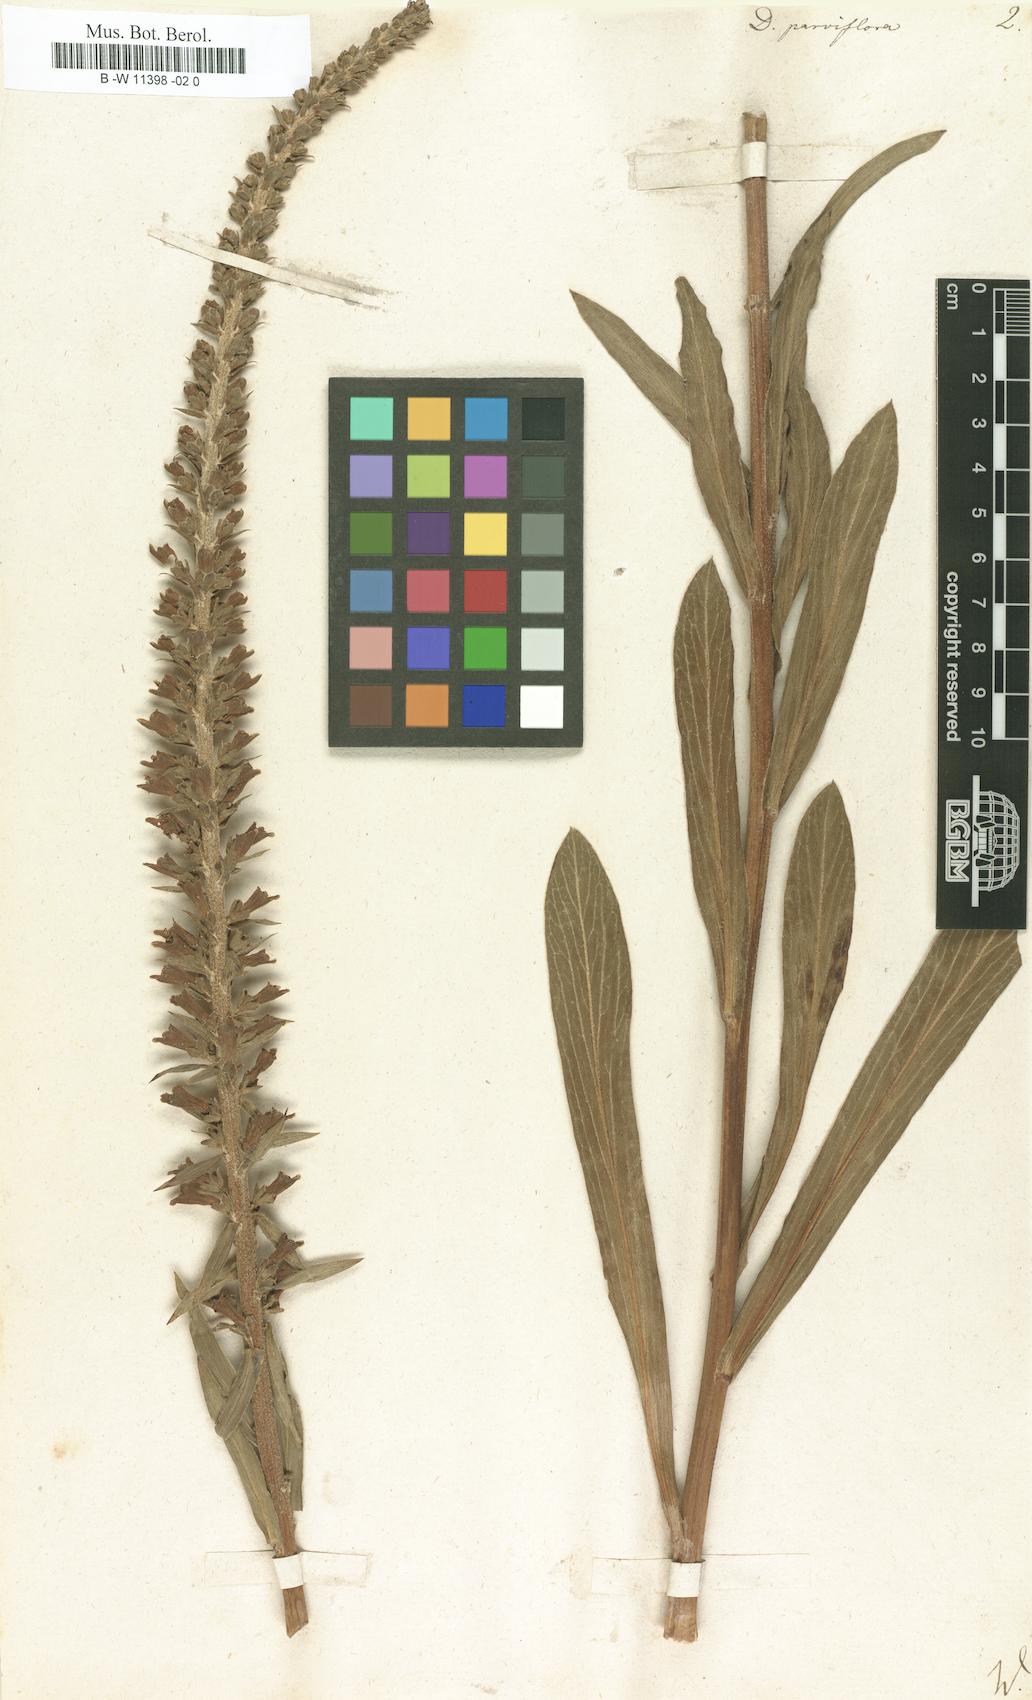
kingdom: Plantae
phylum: Tracheophyta
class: Magnoliopsida
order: Lamiales
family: Plantaginaceae
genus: Digitalis
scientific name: Digitalis parviflora
